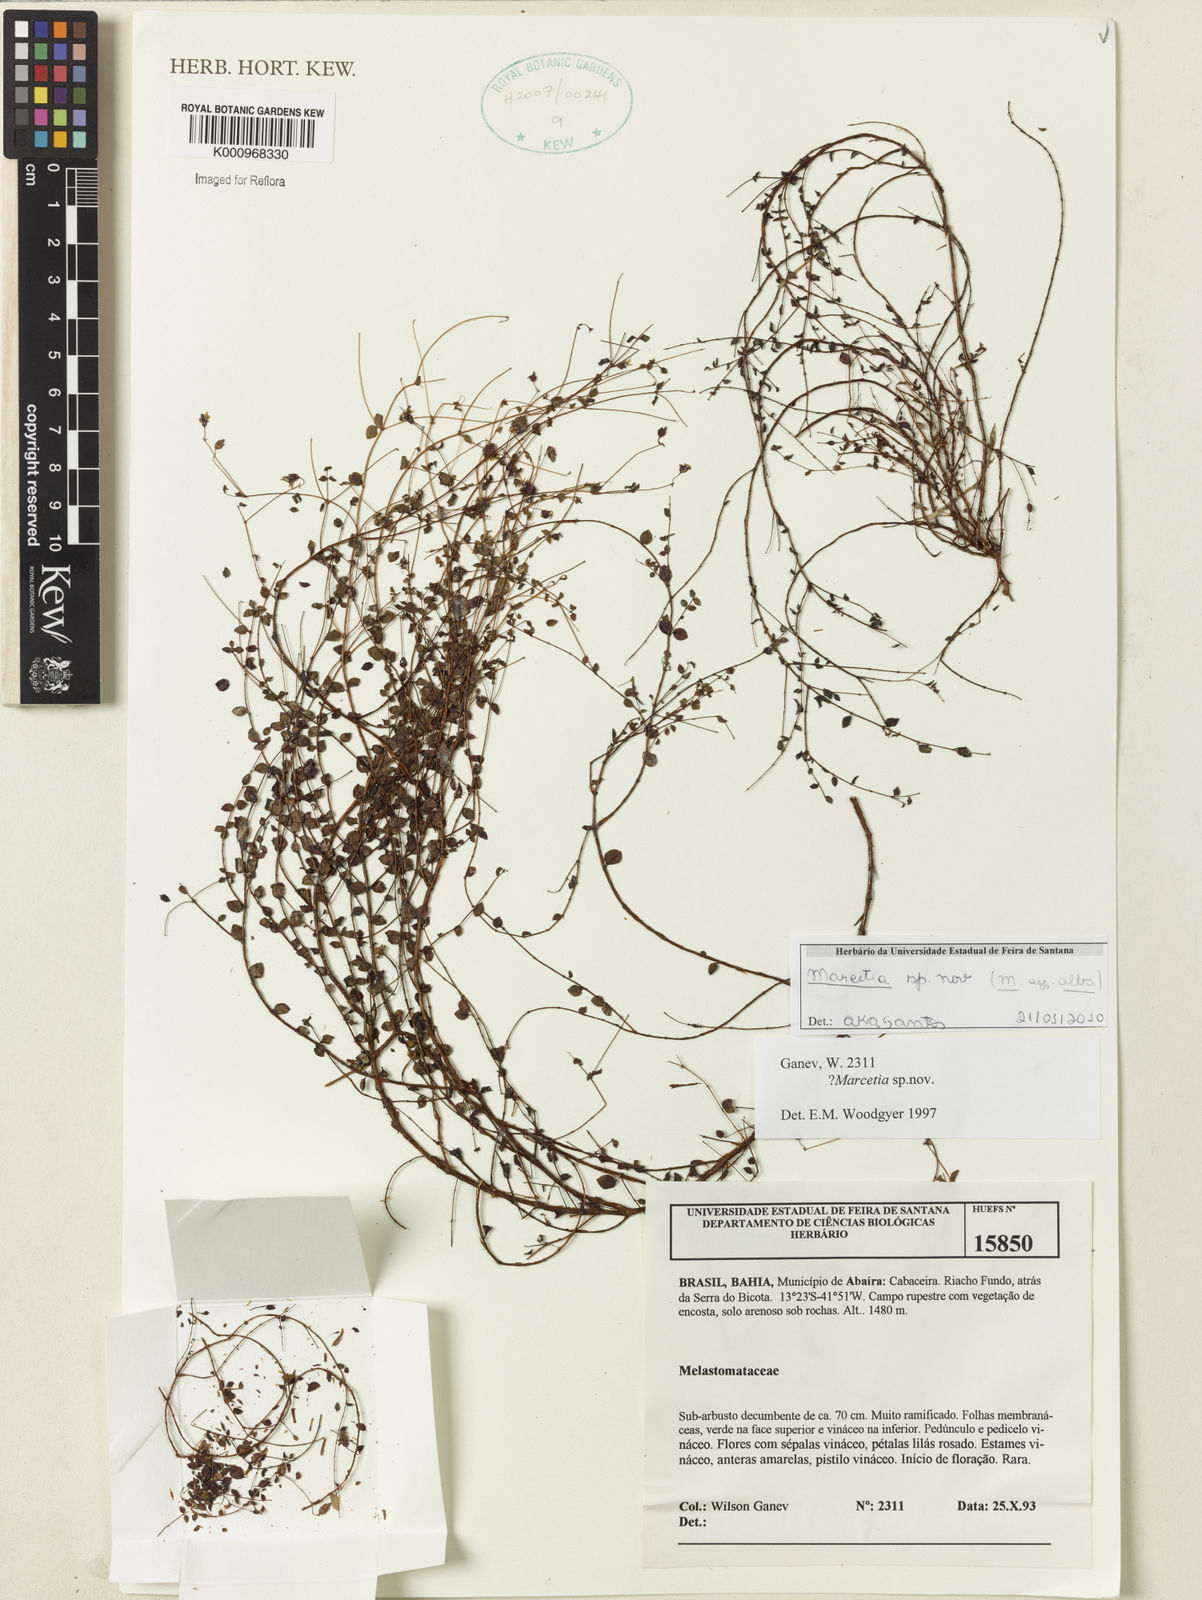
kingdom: Plantae
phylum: Tracheophyta
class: Magnoliopsida
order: Myrtales
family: Melastomataceae
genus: Marcetia
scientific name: Marcetia alba
